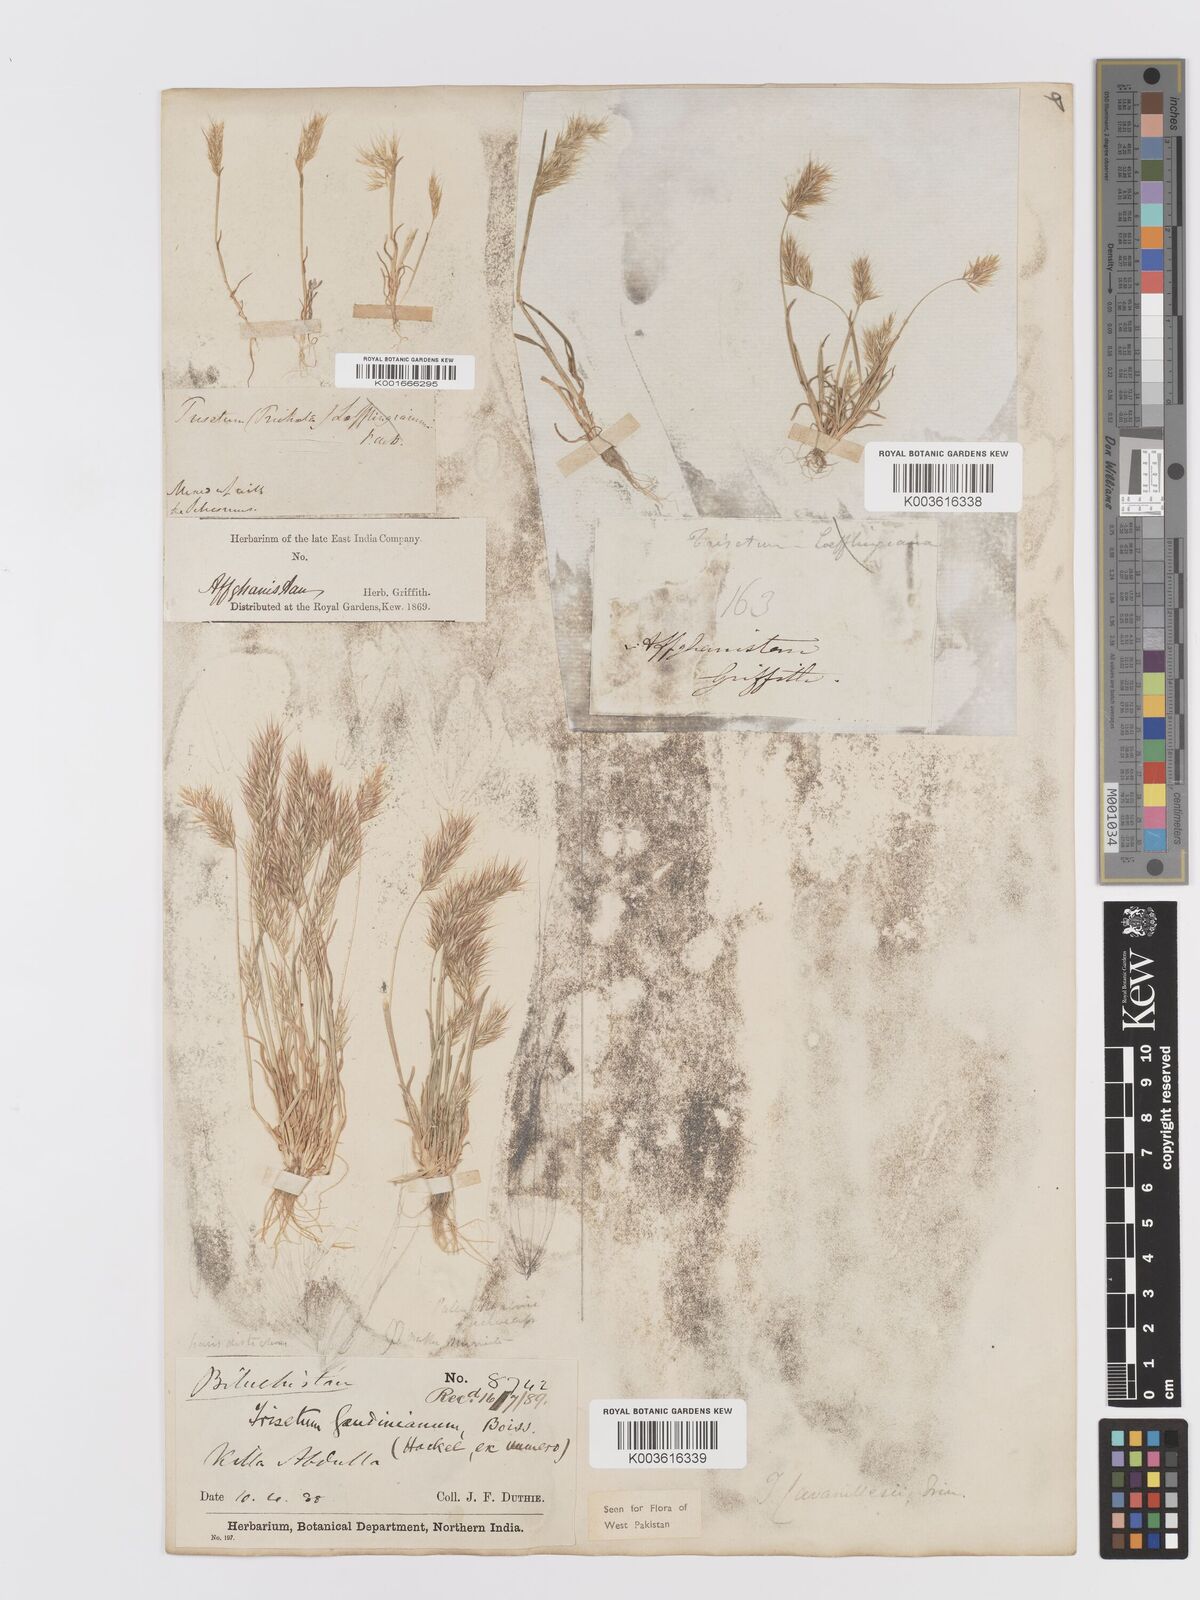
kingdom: Plantae
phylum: Tracheophyta
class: Liliopsida
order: Poales
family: Poaceae
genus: Trisetaria
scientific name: Trisetaria loeflingiana
